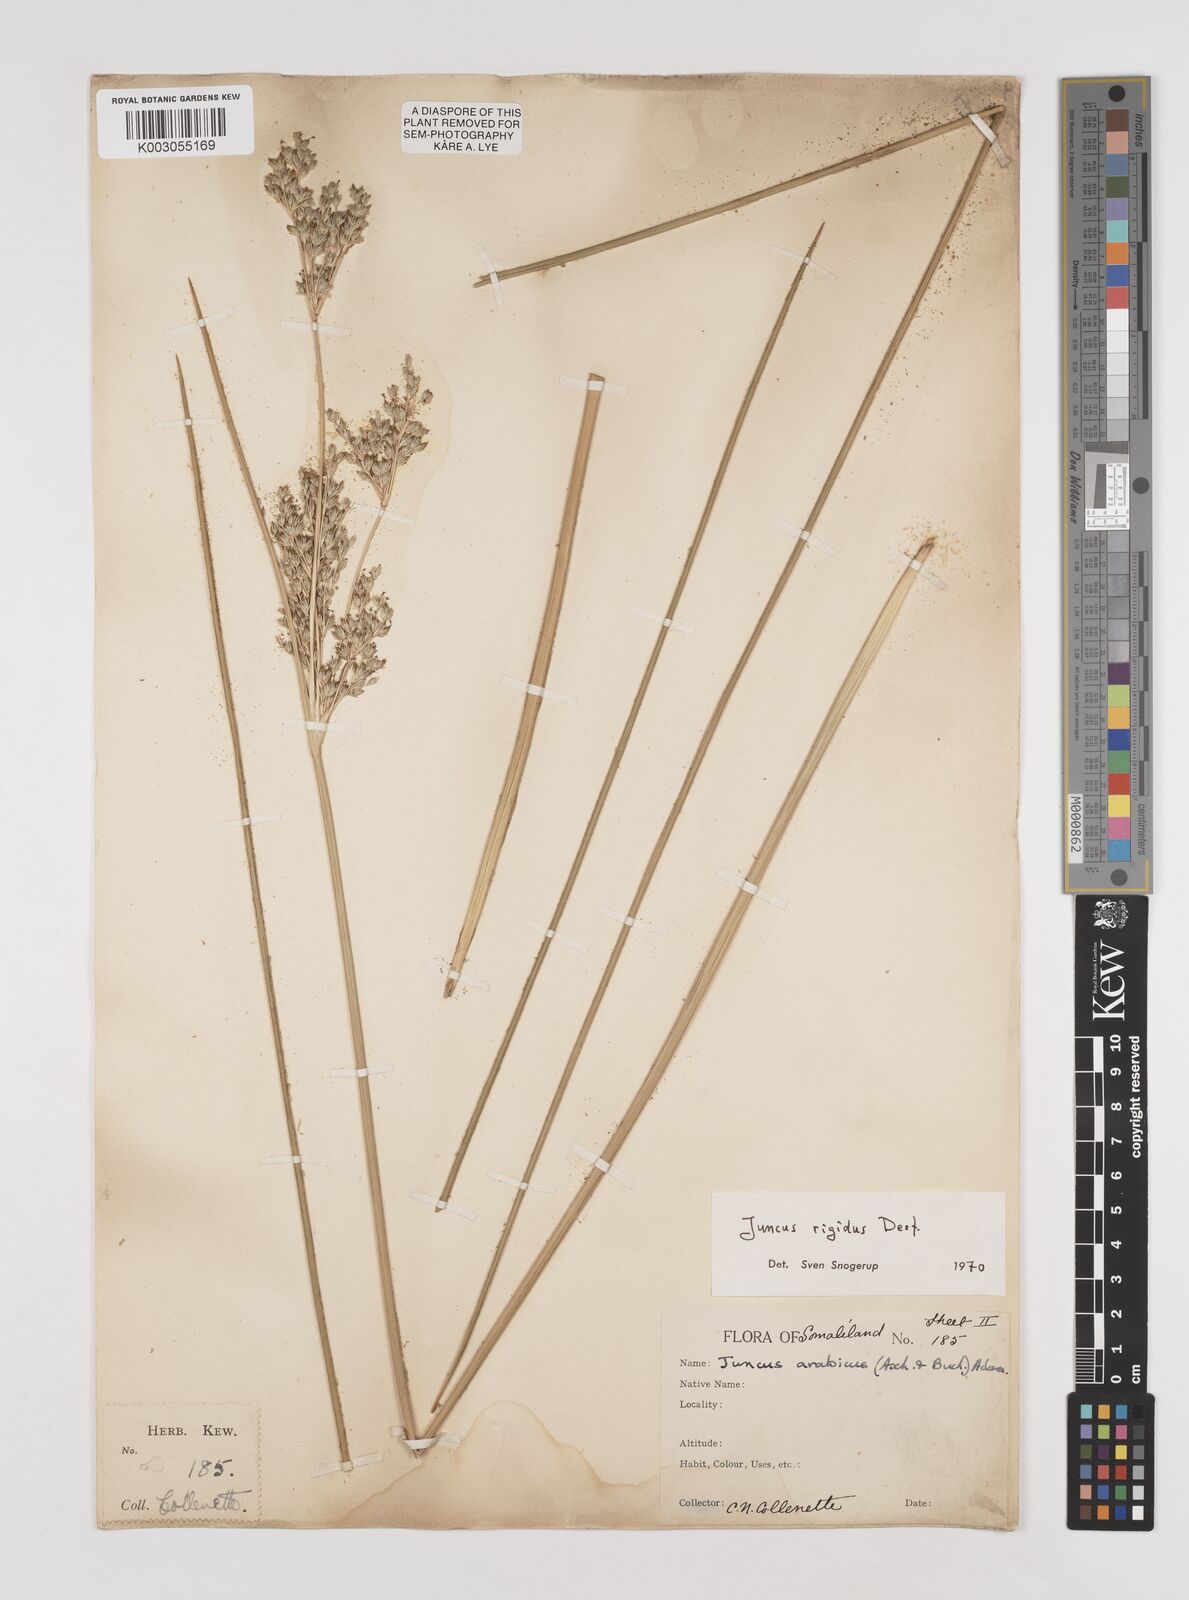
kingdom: Plantae
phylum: Tracheophyta
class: Liliopsida
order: Poales
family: Juncaceae
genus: Juncus
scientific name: Juncus rigidus
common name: Hard sea rush
